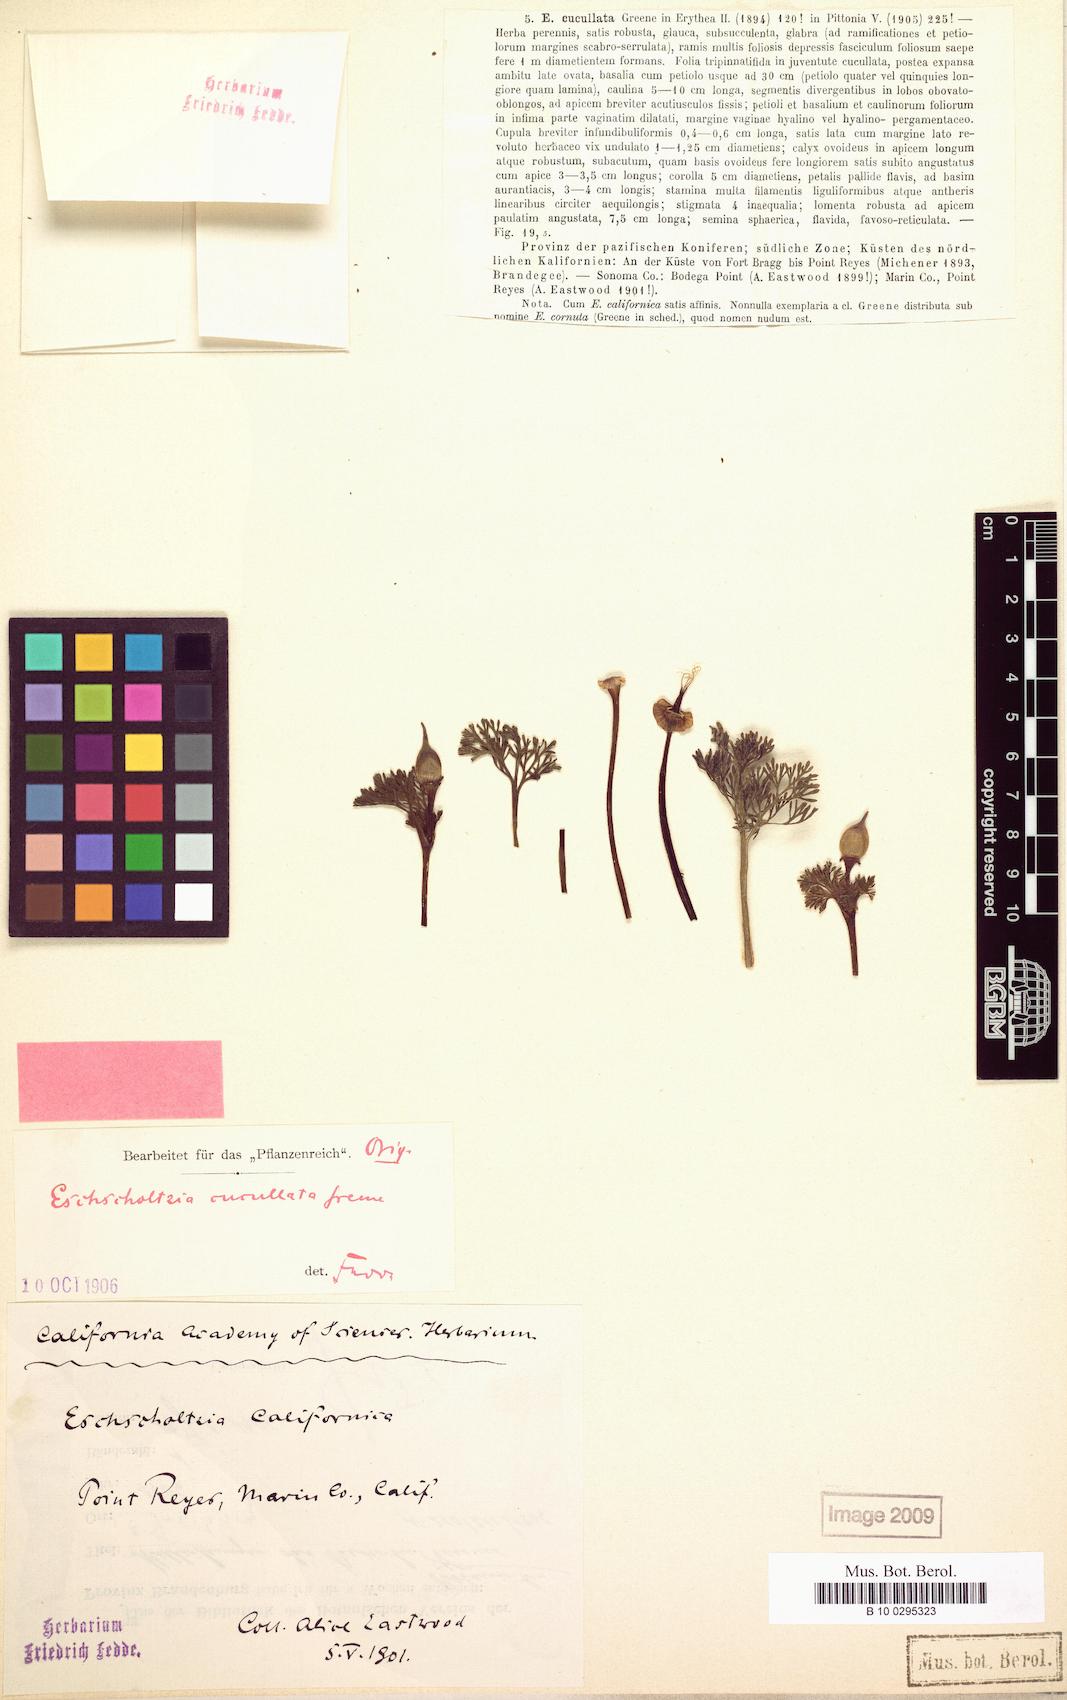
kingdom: Plantae
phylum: Tracheophyta
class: Magnoliopsida
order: Ranunculales
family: Papaveraceae
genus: Eschscholzia
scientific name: Eschscholzia californica
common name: California poppy
